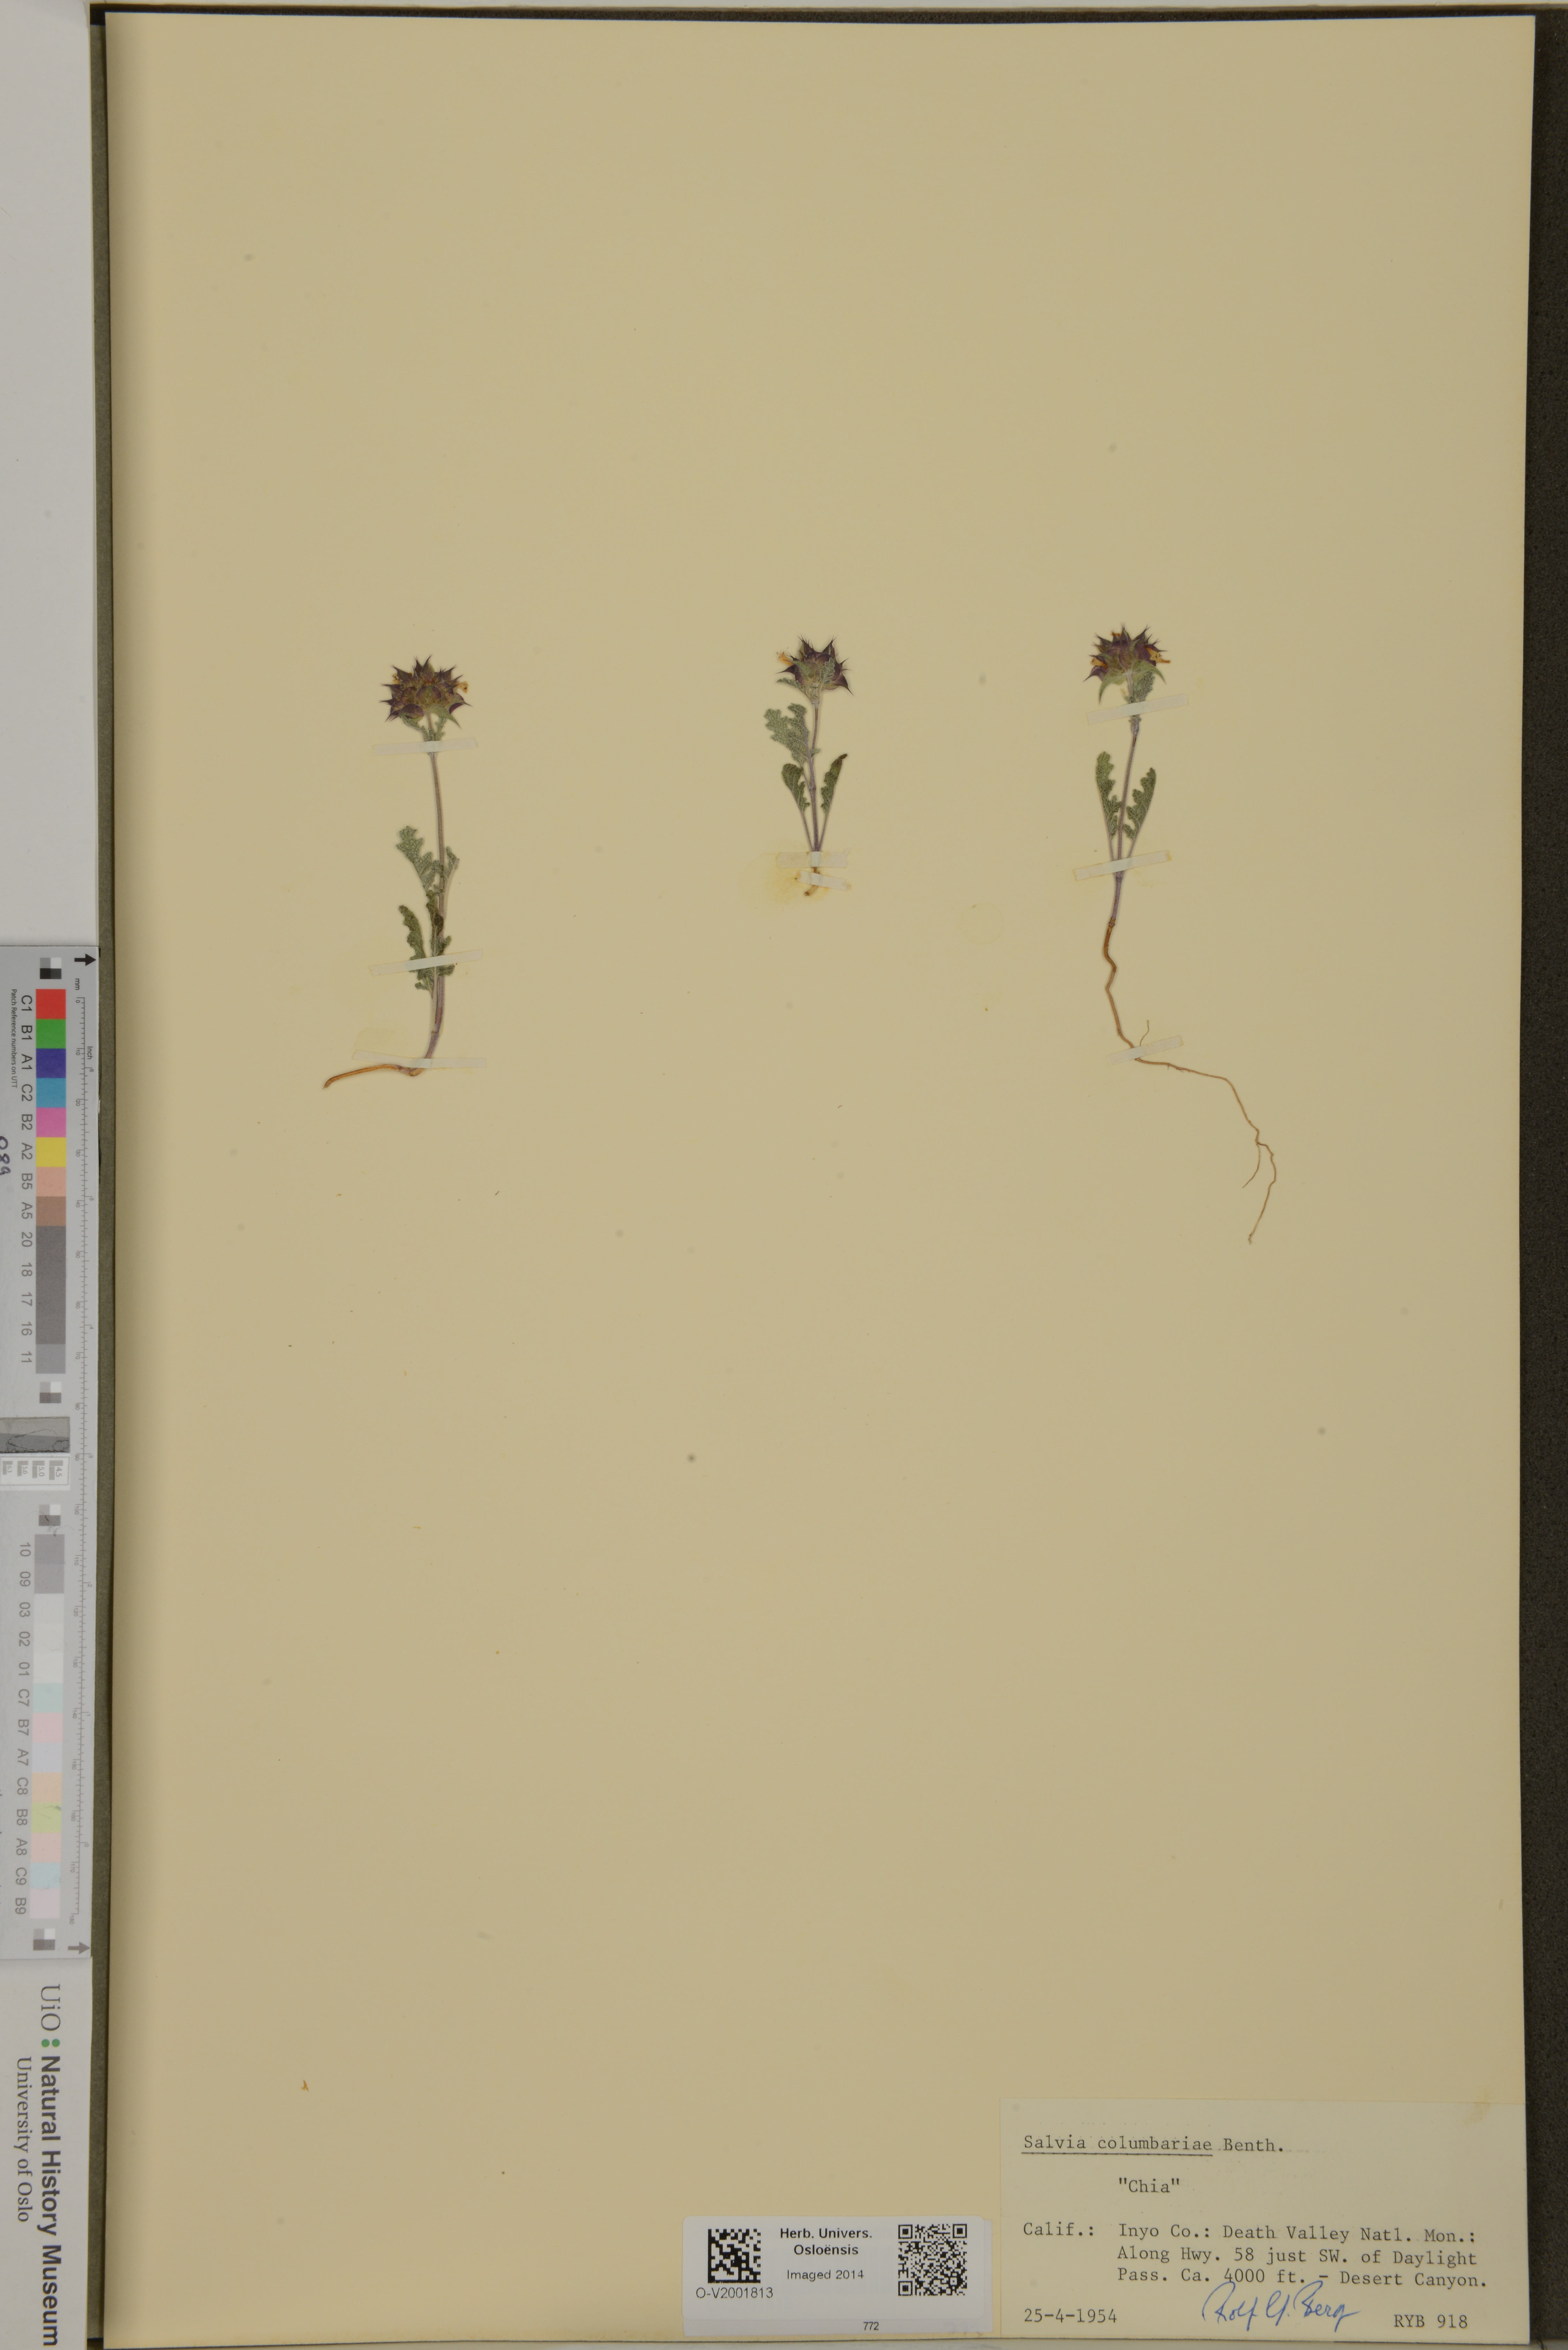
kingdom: Plantae
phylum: Tracheophyta
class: Magnoliopsida
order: Lamiales
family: Lamiaceae
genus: Salvia
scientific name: Salvia columbariae
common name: Chia
